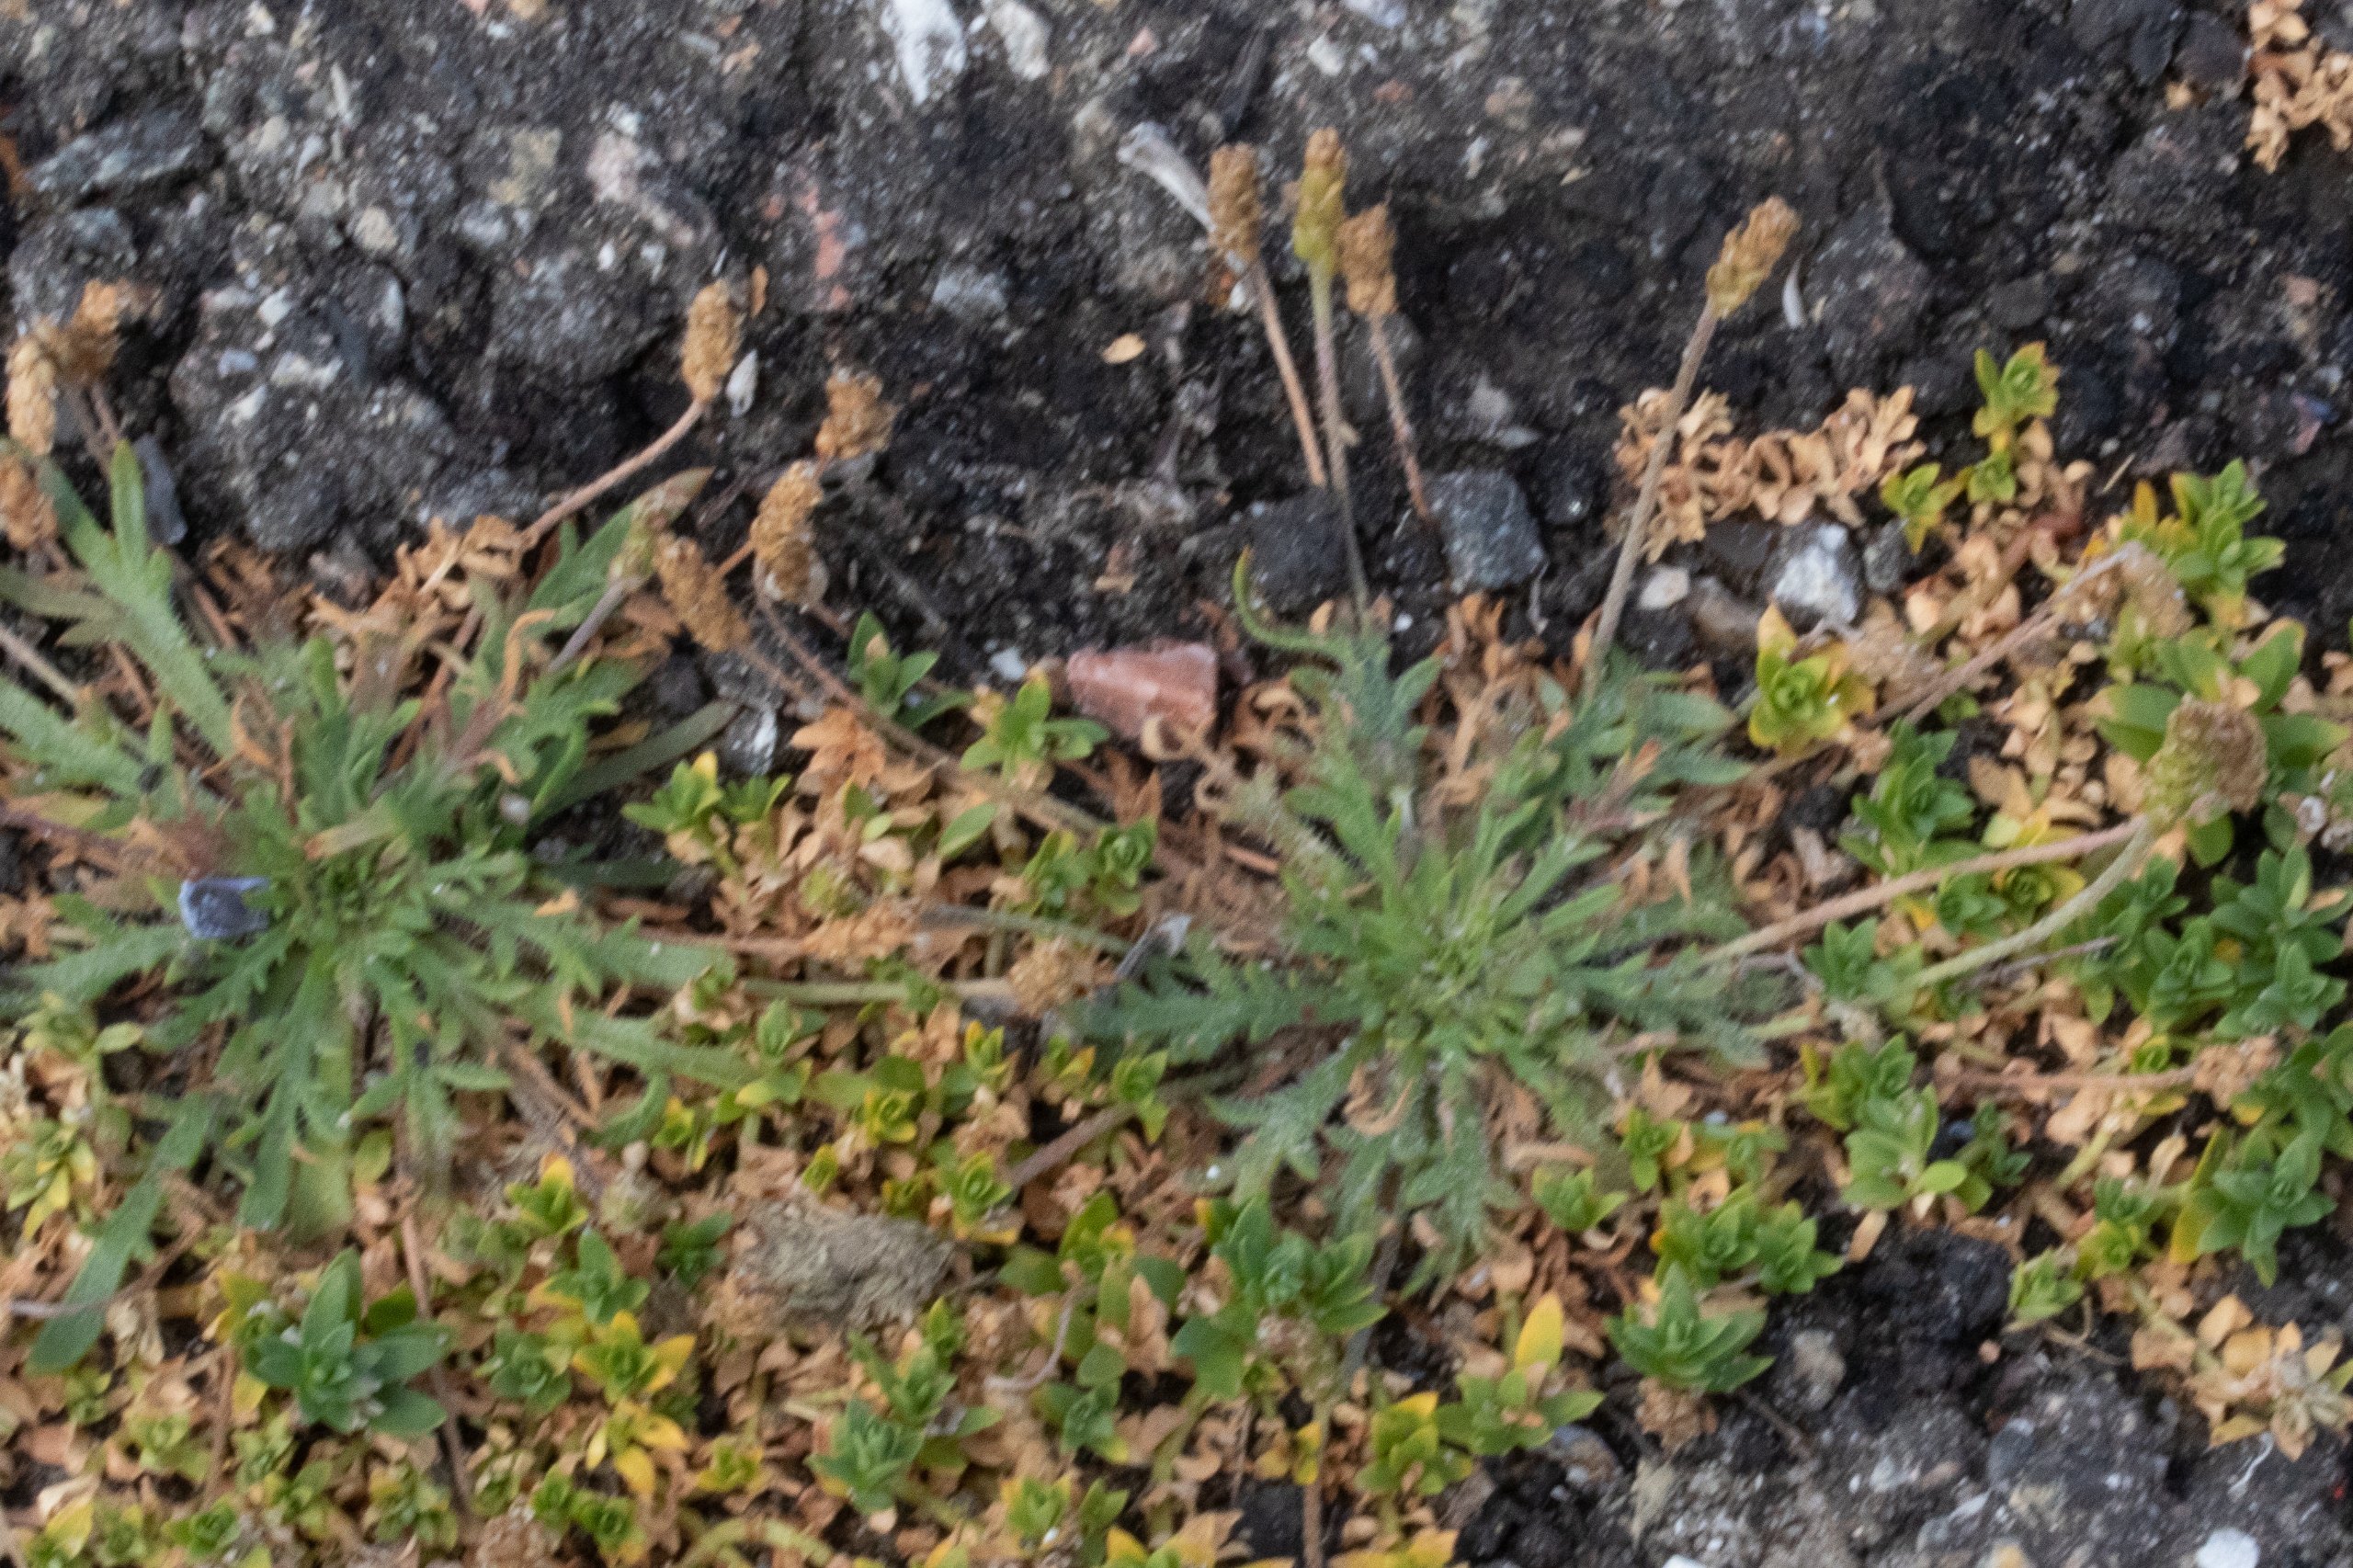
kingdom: Plantae
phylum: Tracheophyta
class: Magnoliopsida
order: Lamiales
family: Plantaginaceae
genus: Plantago
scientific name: Plantago coronopus
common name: Fliget vejbred
